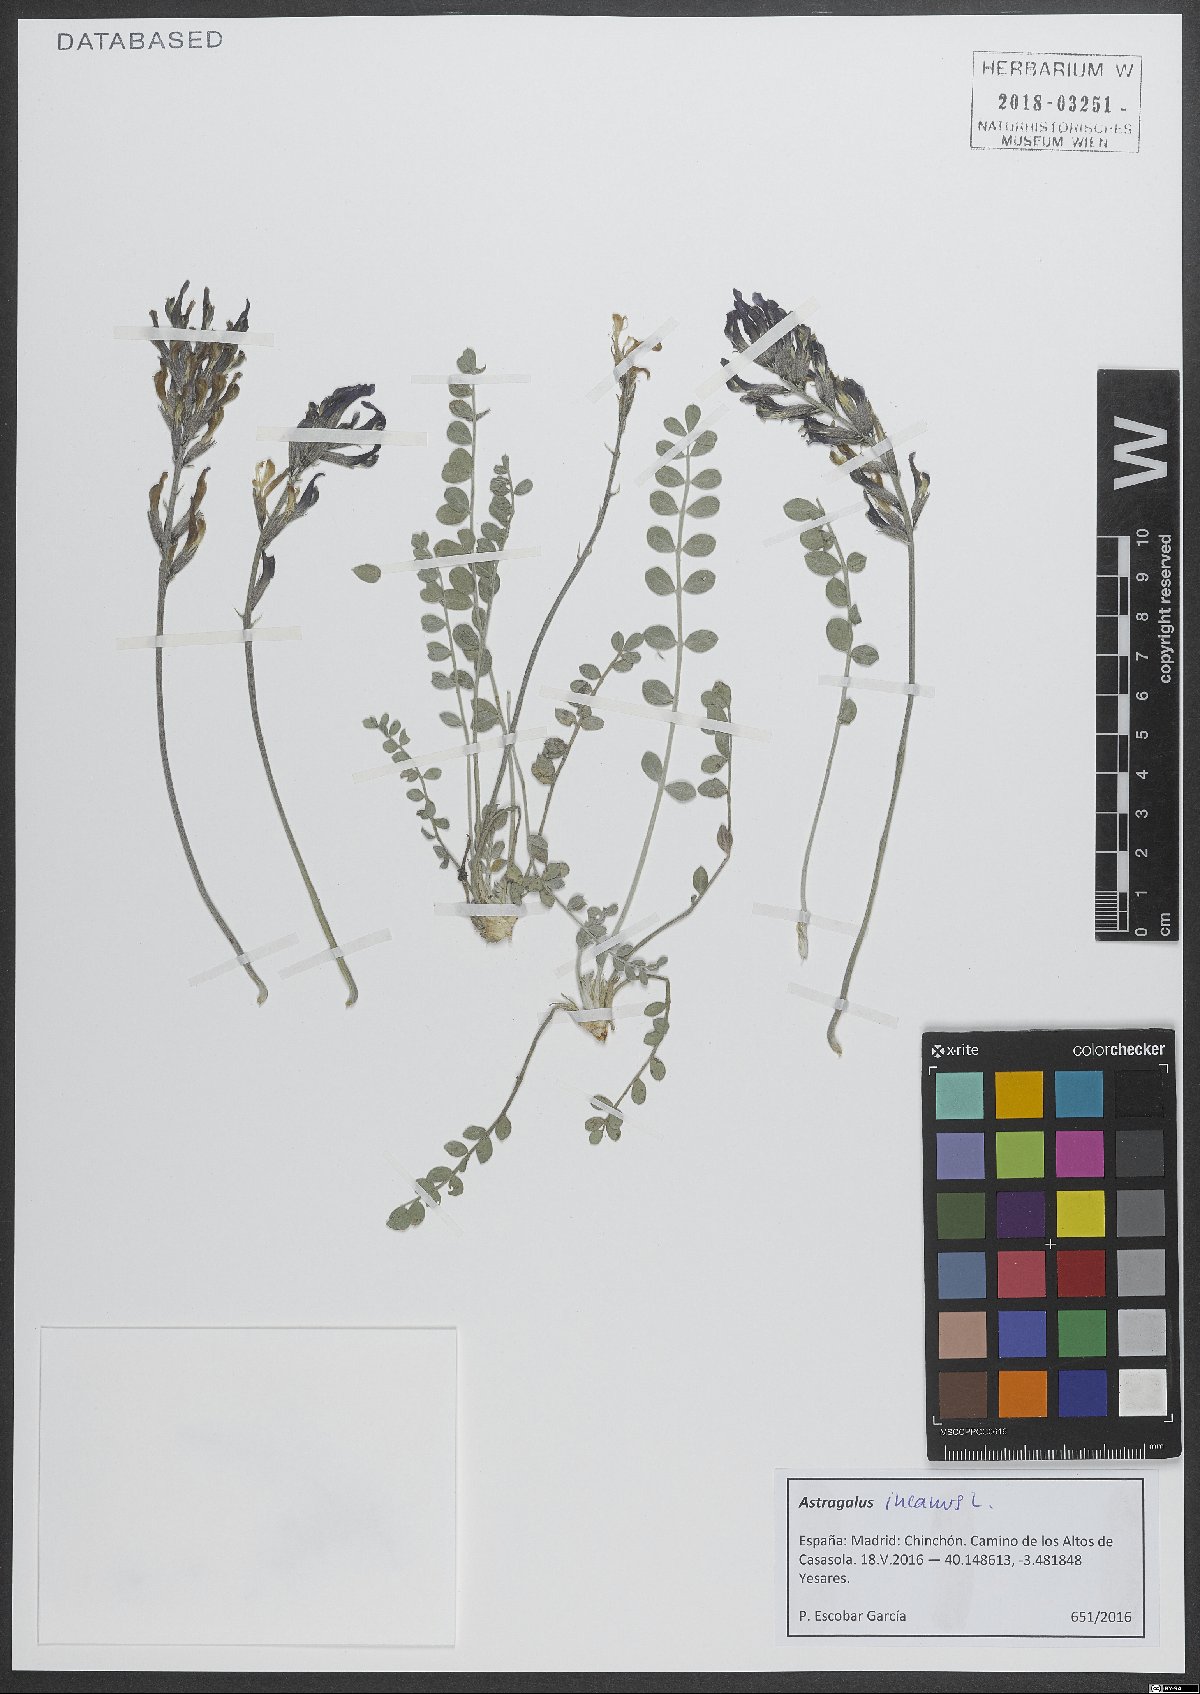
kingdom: Plantae
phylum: Tracheophyta
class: Magnoliopsida
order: Fabales
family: Fabaceae
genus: Astragalus
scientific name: Astragalus incanus
